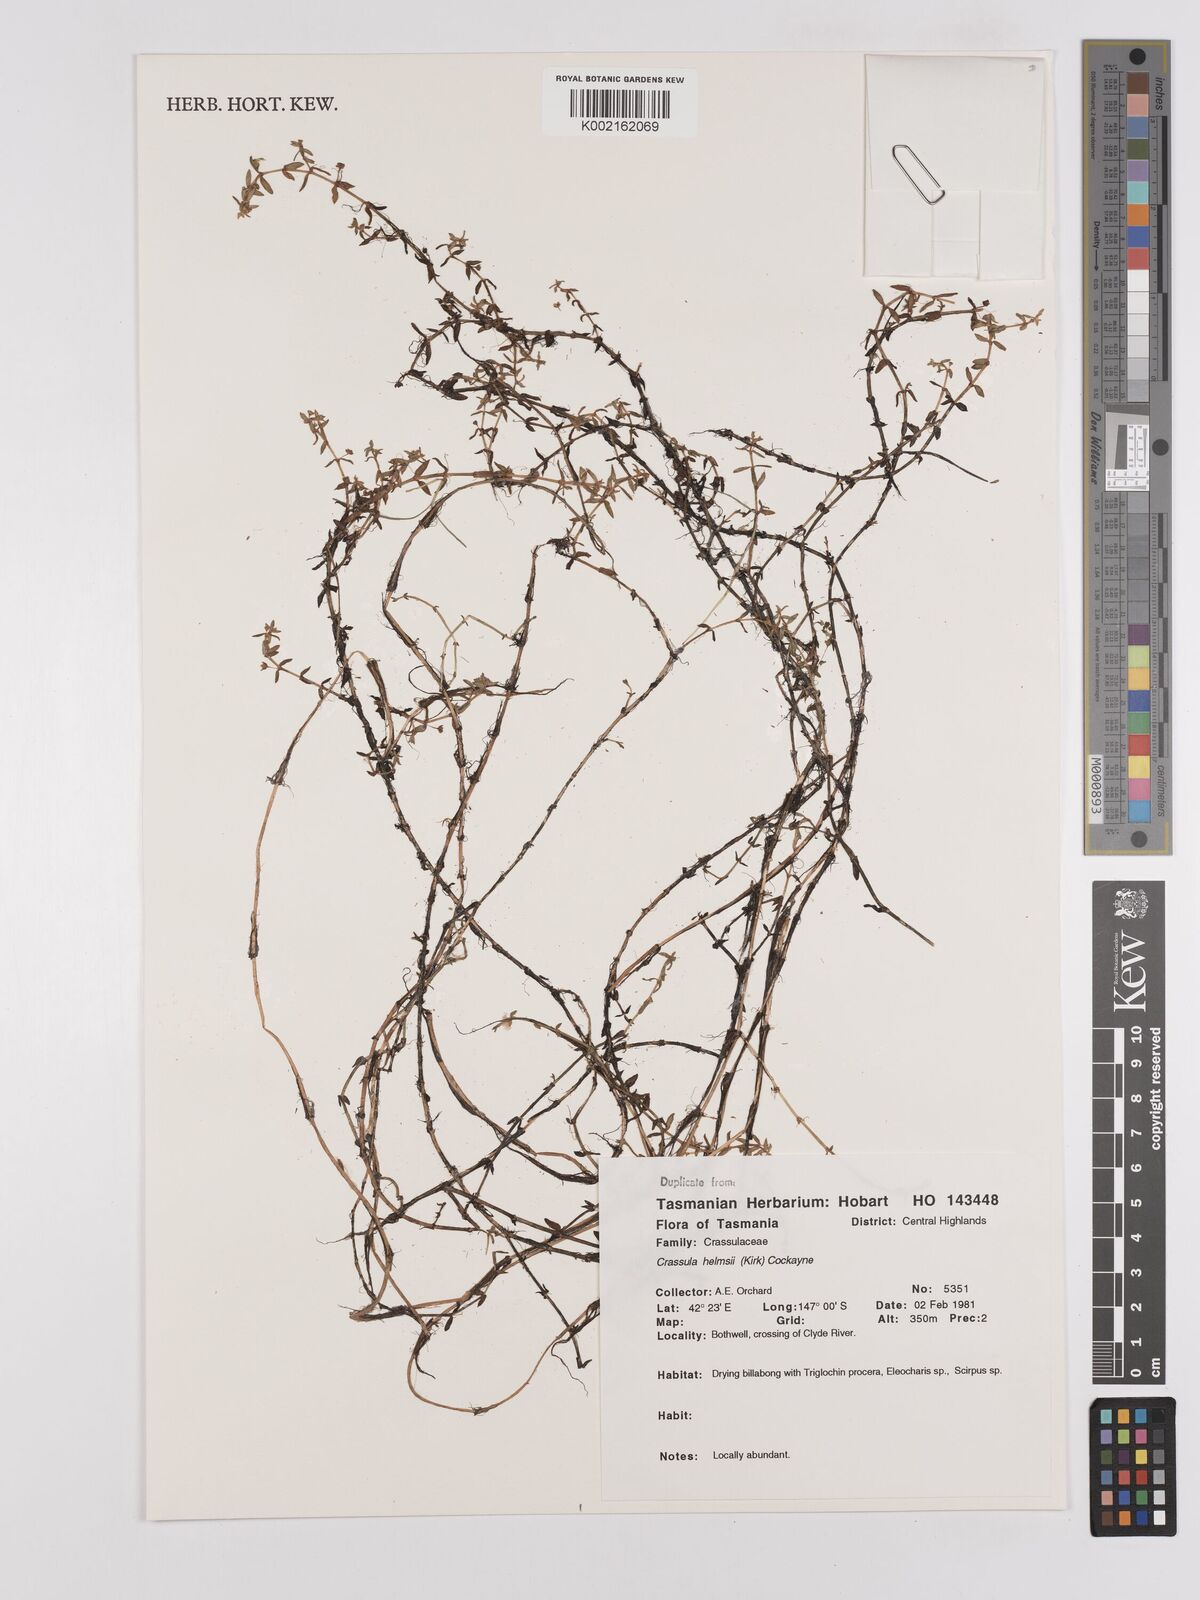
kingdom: Plantae
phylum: Tracheophyta
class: Magnoliopsida
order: Saxifragales
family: Crassulaceae
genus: Crassula
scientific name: Crassula helmsii
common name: New zealand pigmyweed
